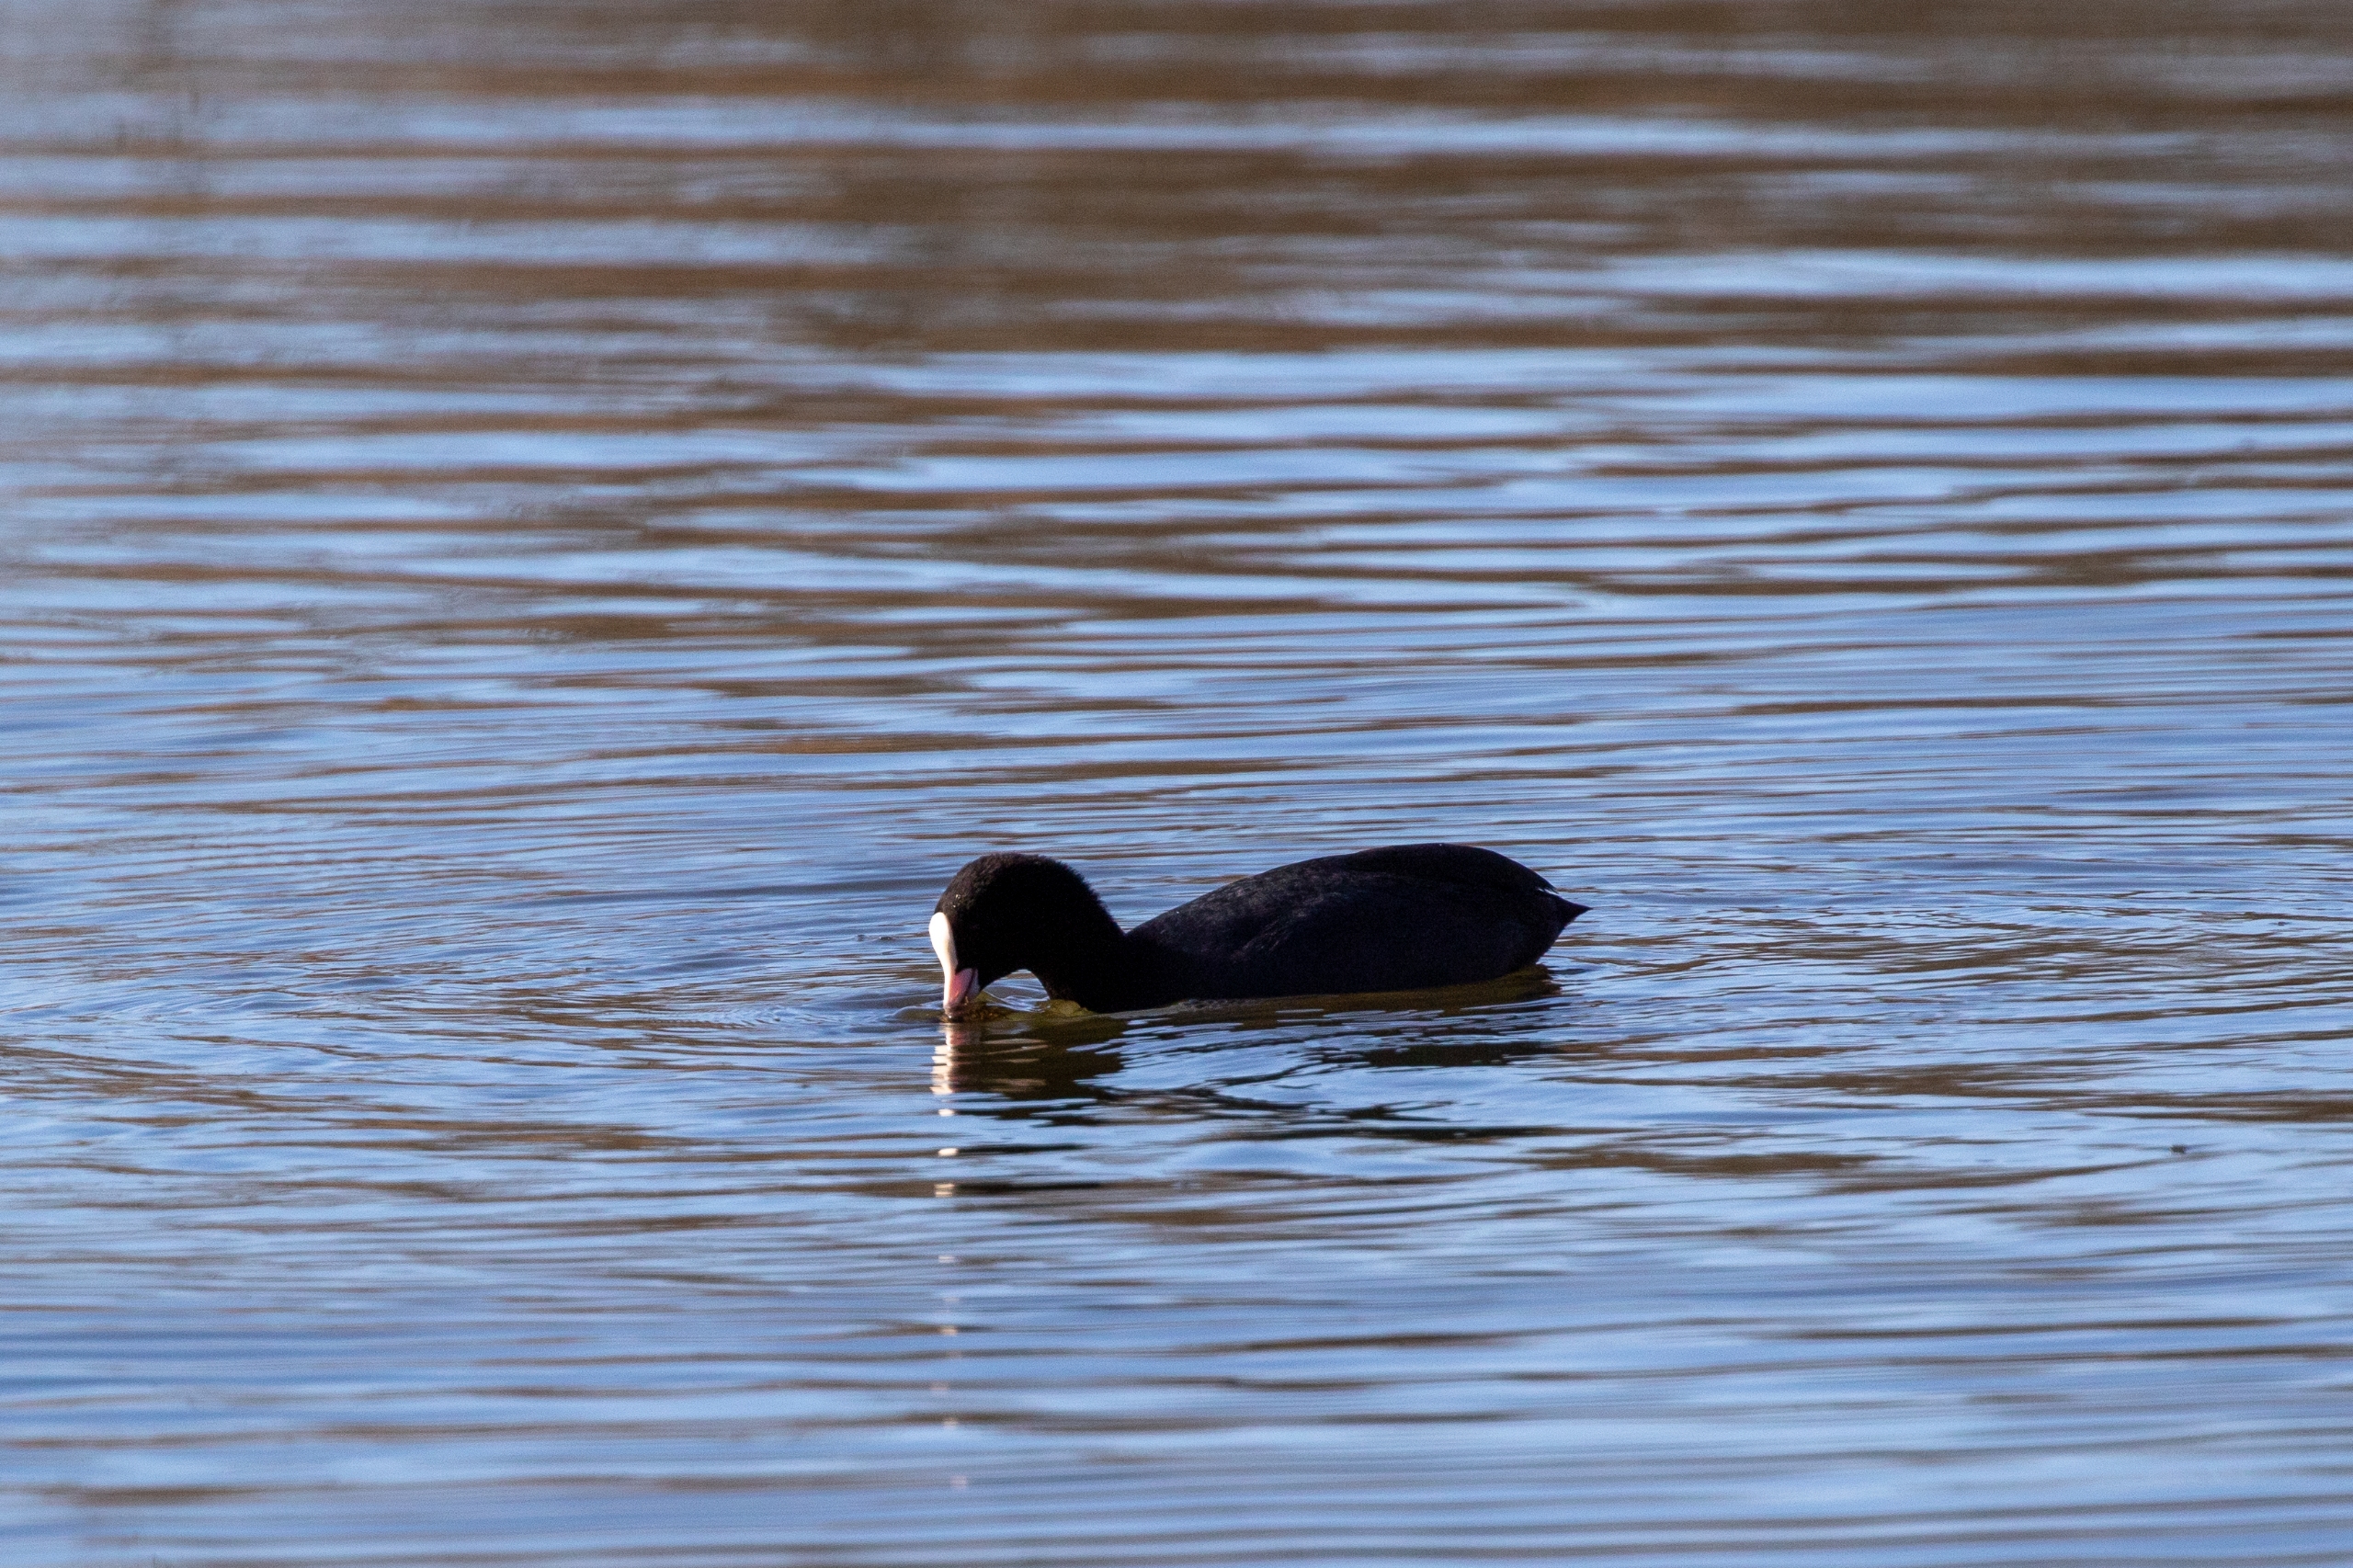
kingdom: Animalia
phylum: Chordata
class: Aves
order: Gruiformes
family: Rallidae
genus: Fulica
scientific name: Fulica atra
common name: Blishøne
